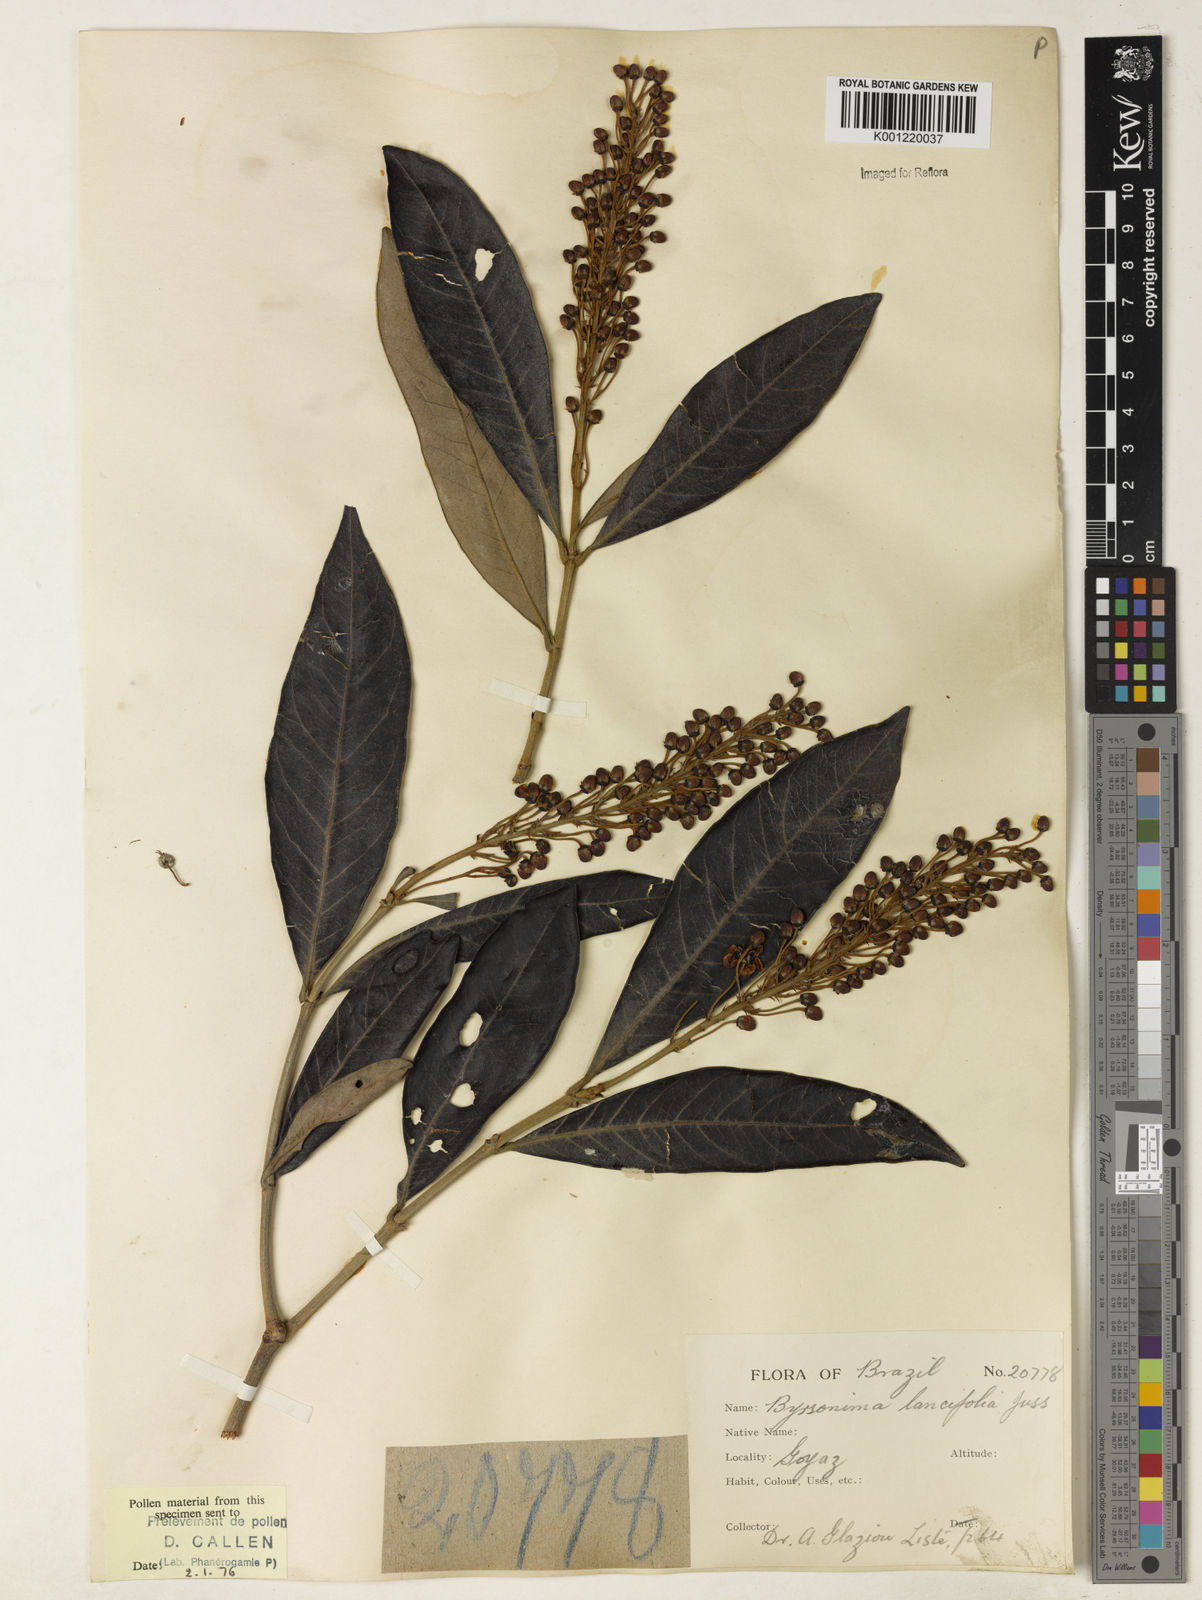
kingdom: Plantae
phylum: Tracheophyta
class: Magnoliopsida
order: Malpighiales
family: Malpighiaceae
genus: Byrsonima
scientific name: Byrsonima lancifolia
